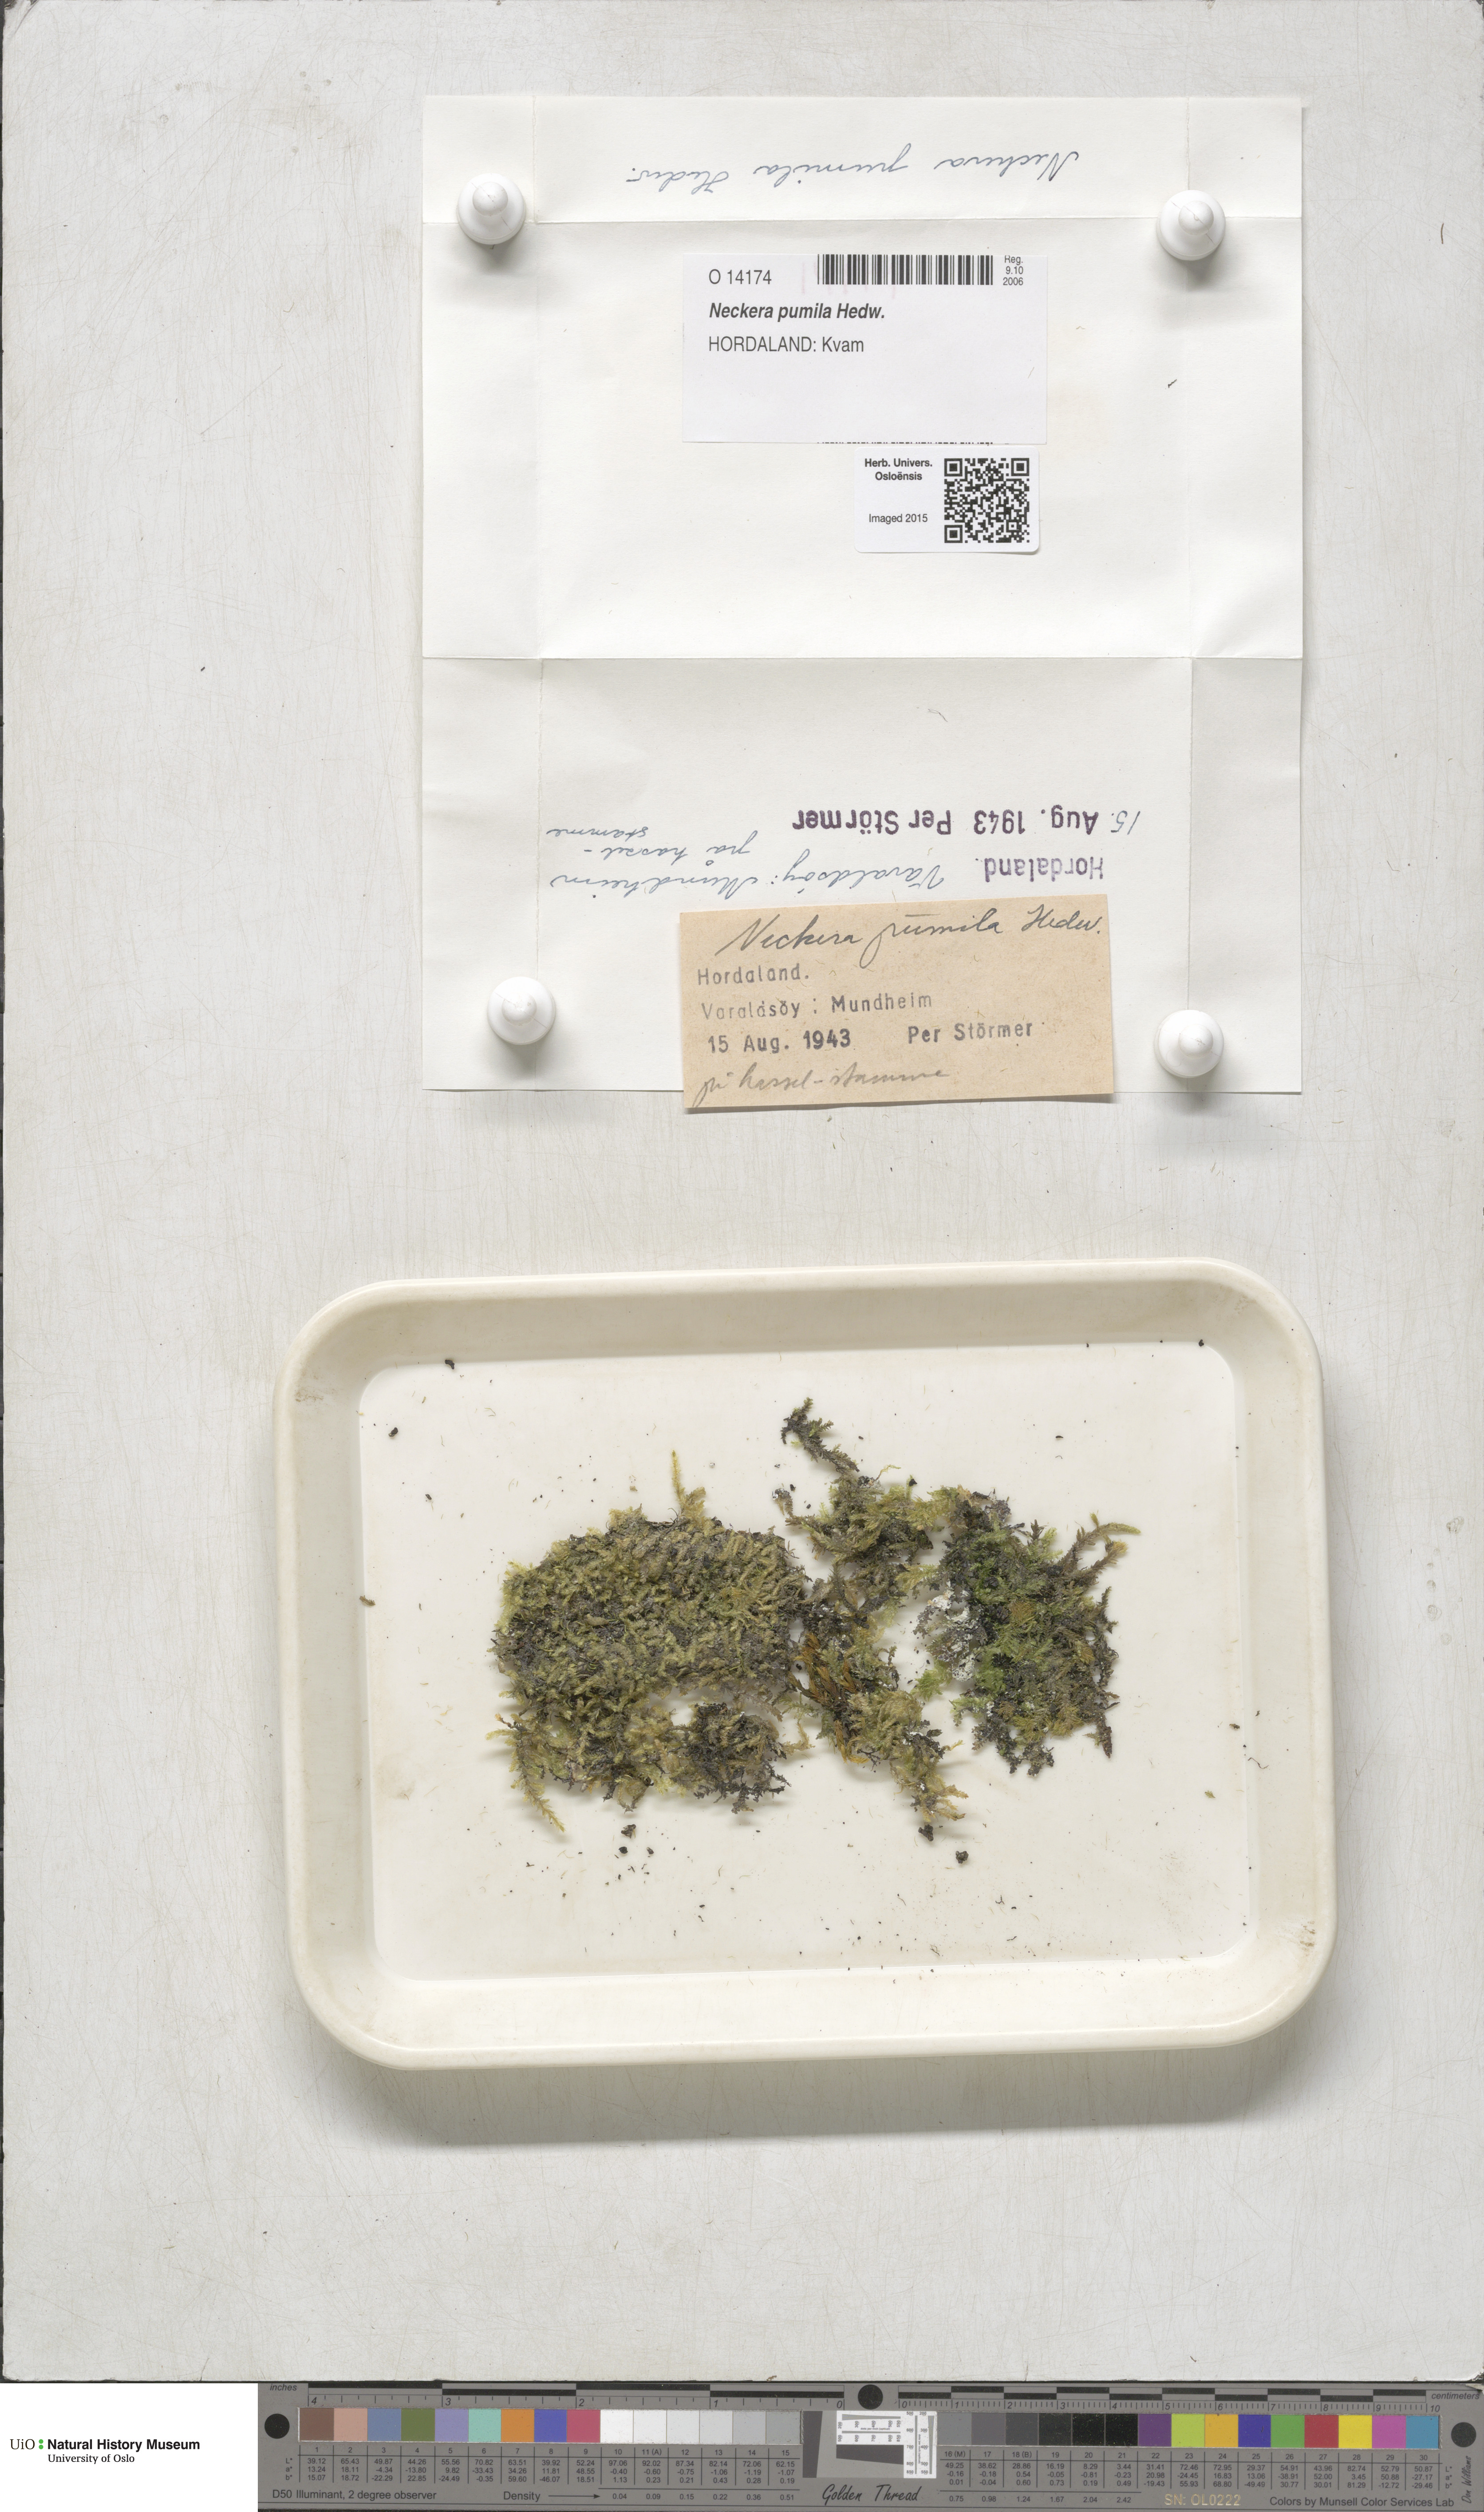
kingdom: Plantae
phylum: Bryophyta
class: Bryopsida
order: Hypnales
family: Neckeraceae
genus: Neckera
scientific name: Neckera pumila
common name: Dwarf neckera
